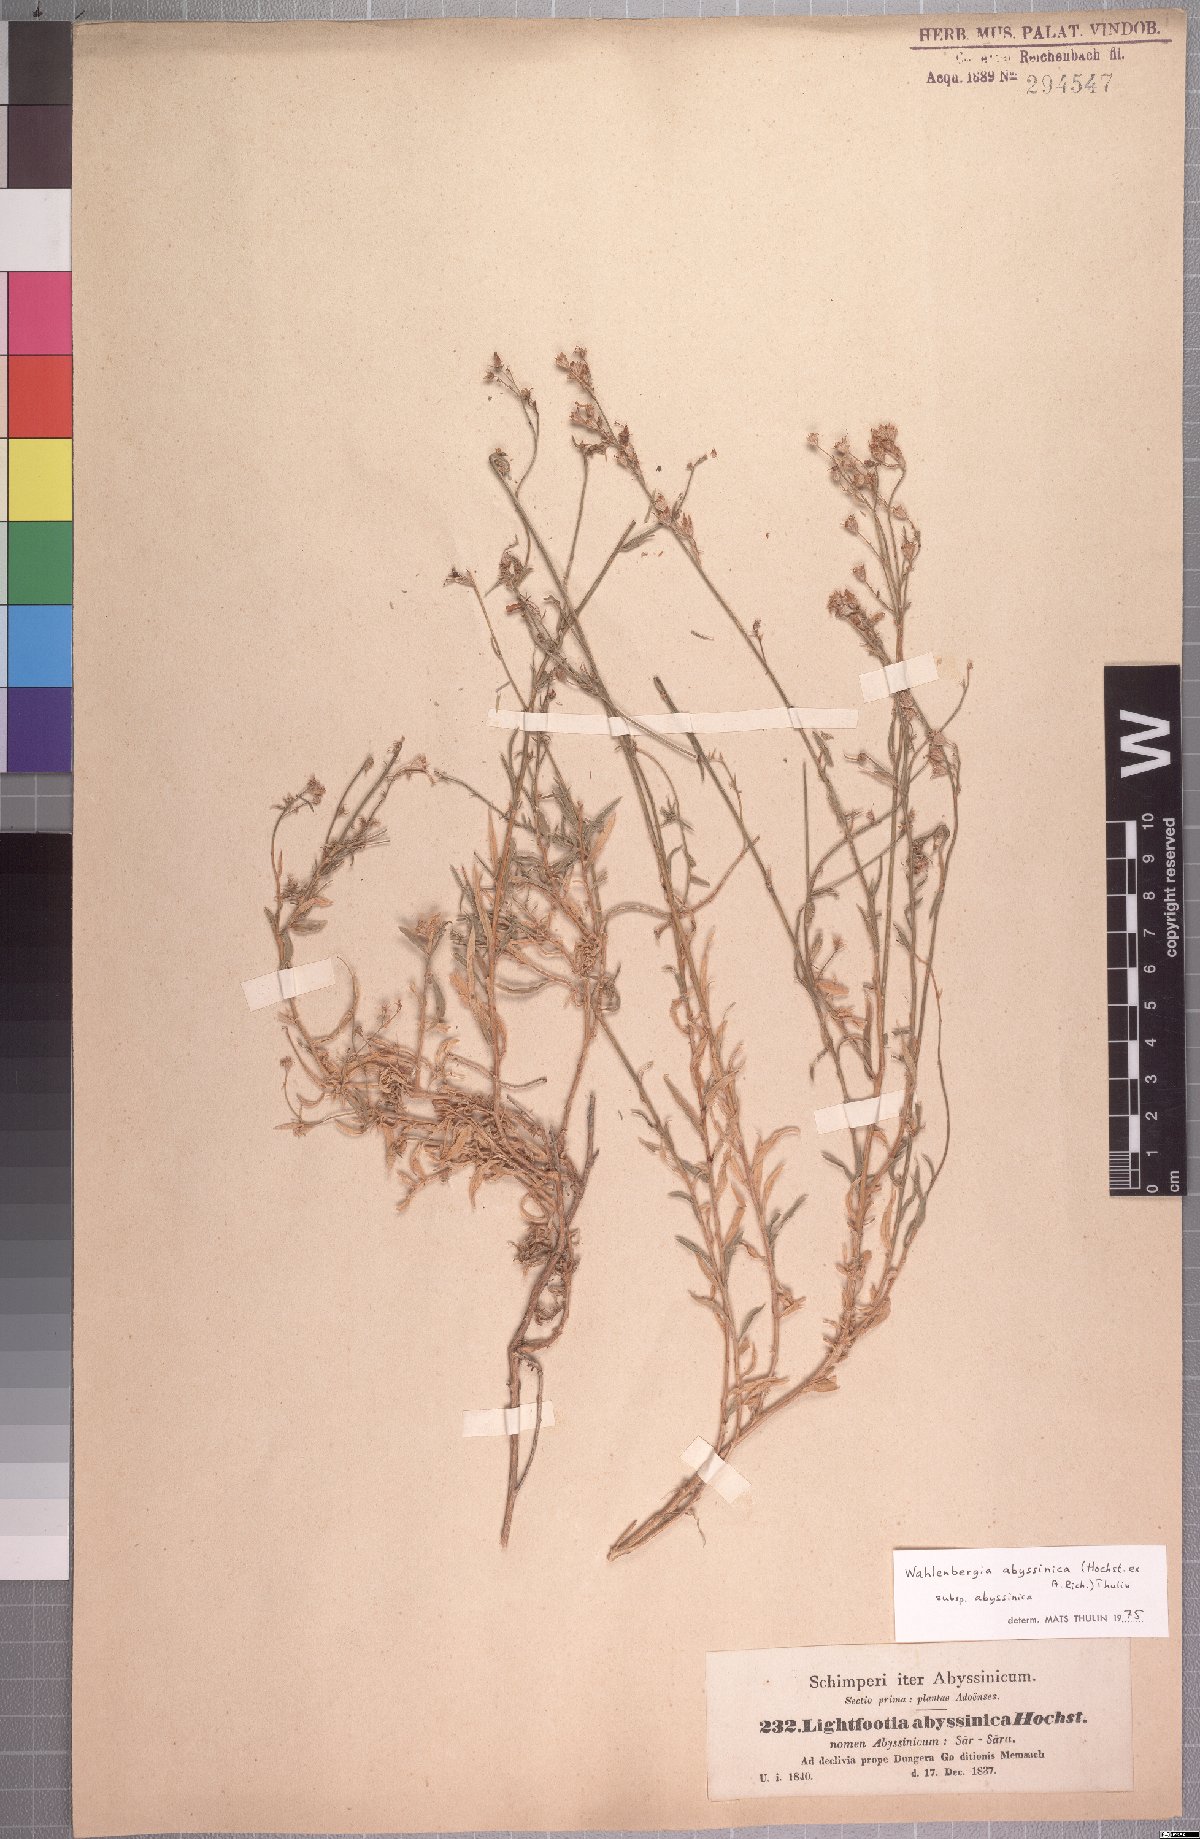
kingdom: Plantae
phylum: Tracheophyta
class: Magnoliopsida
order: Asterales
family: Campanulaceae
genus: Wahlenbergia
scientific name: Wahlenbergia abyssinica
